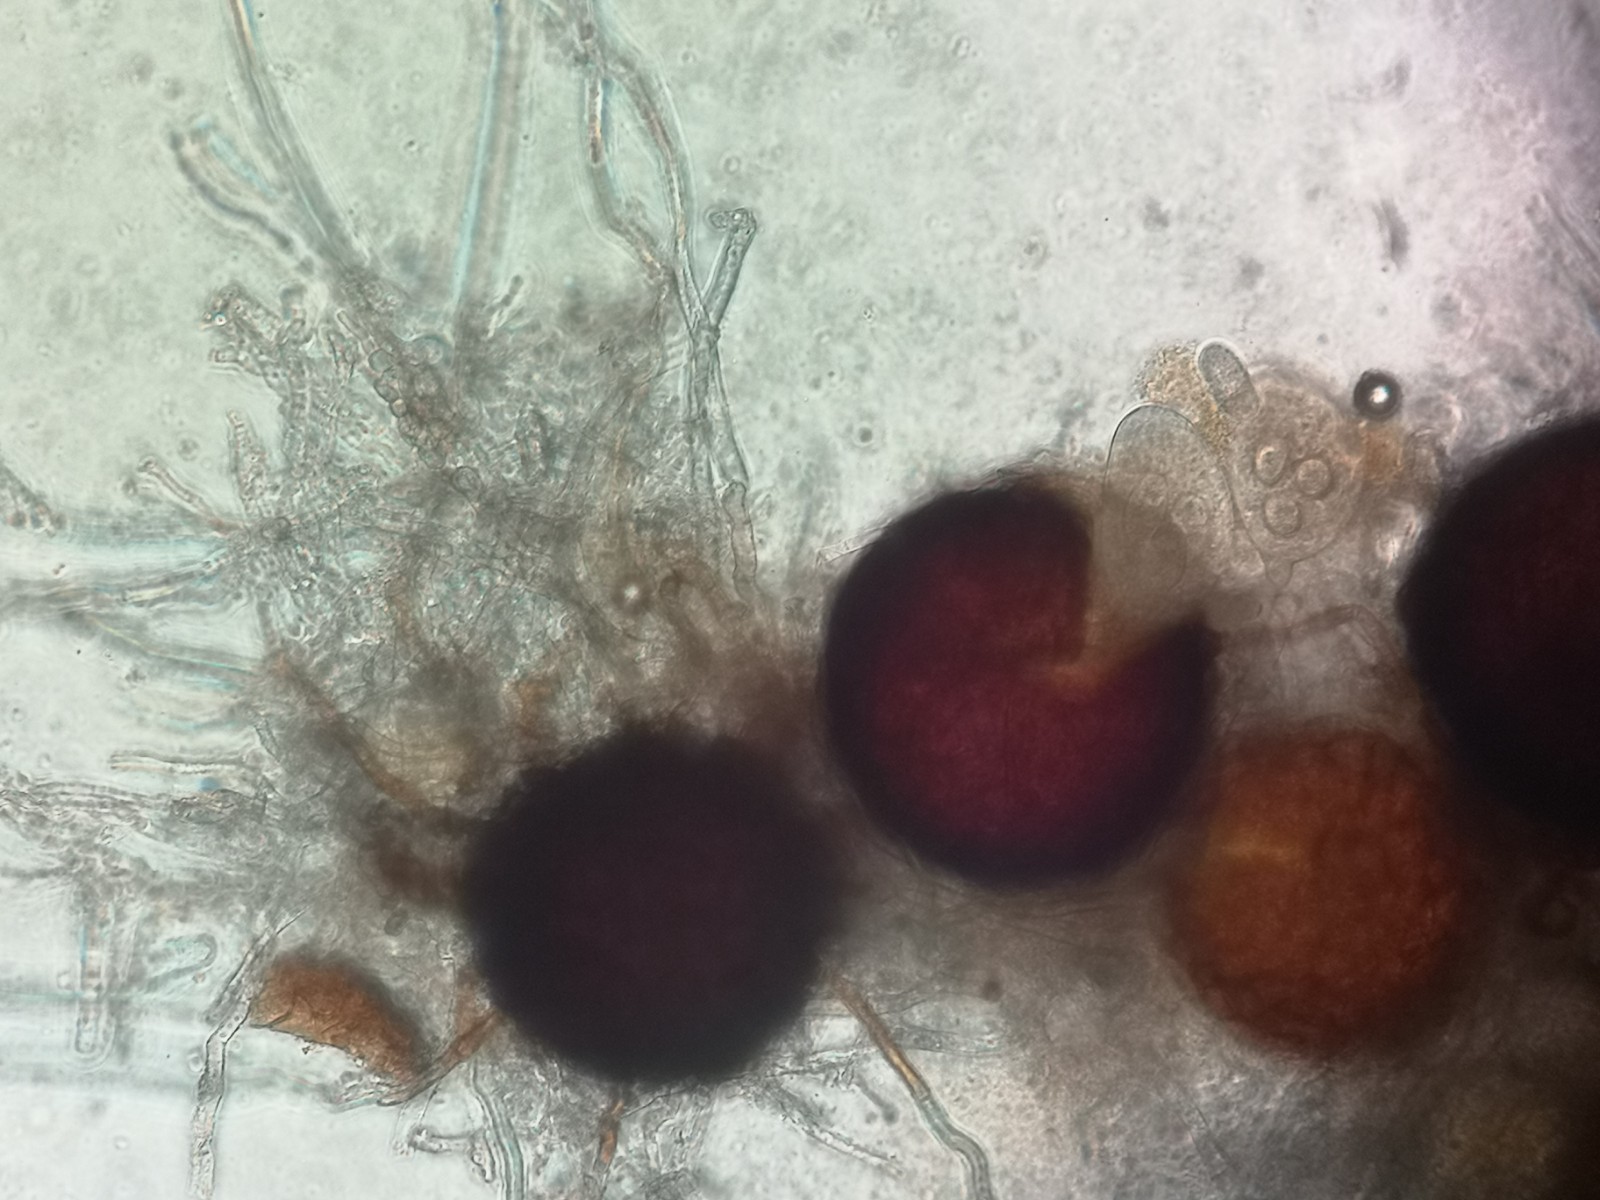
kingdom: Fungi
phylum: Ascomycota
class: Leotiomycetes
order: Helotiales
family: Erysiphaceae
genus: Erysiphe
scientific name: Erysiphe trifoliorum
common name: kløver-meldug
